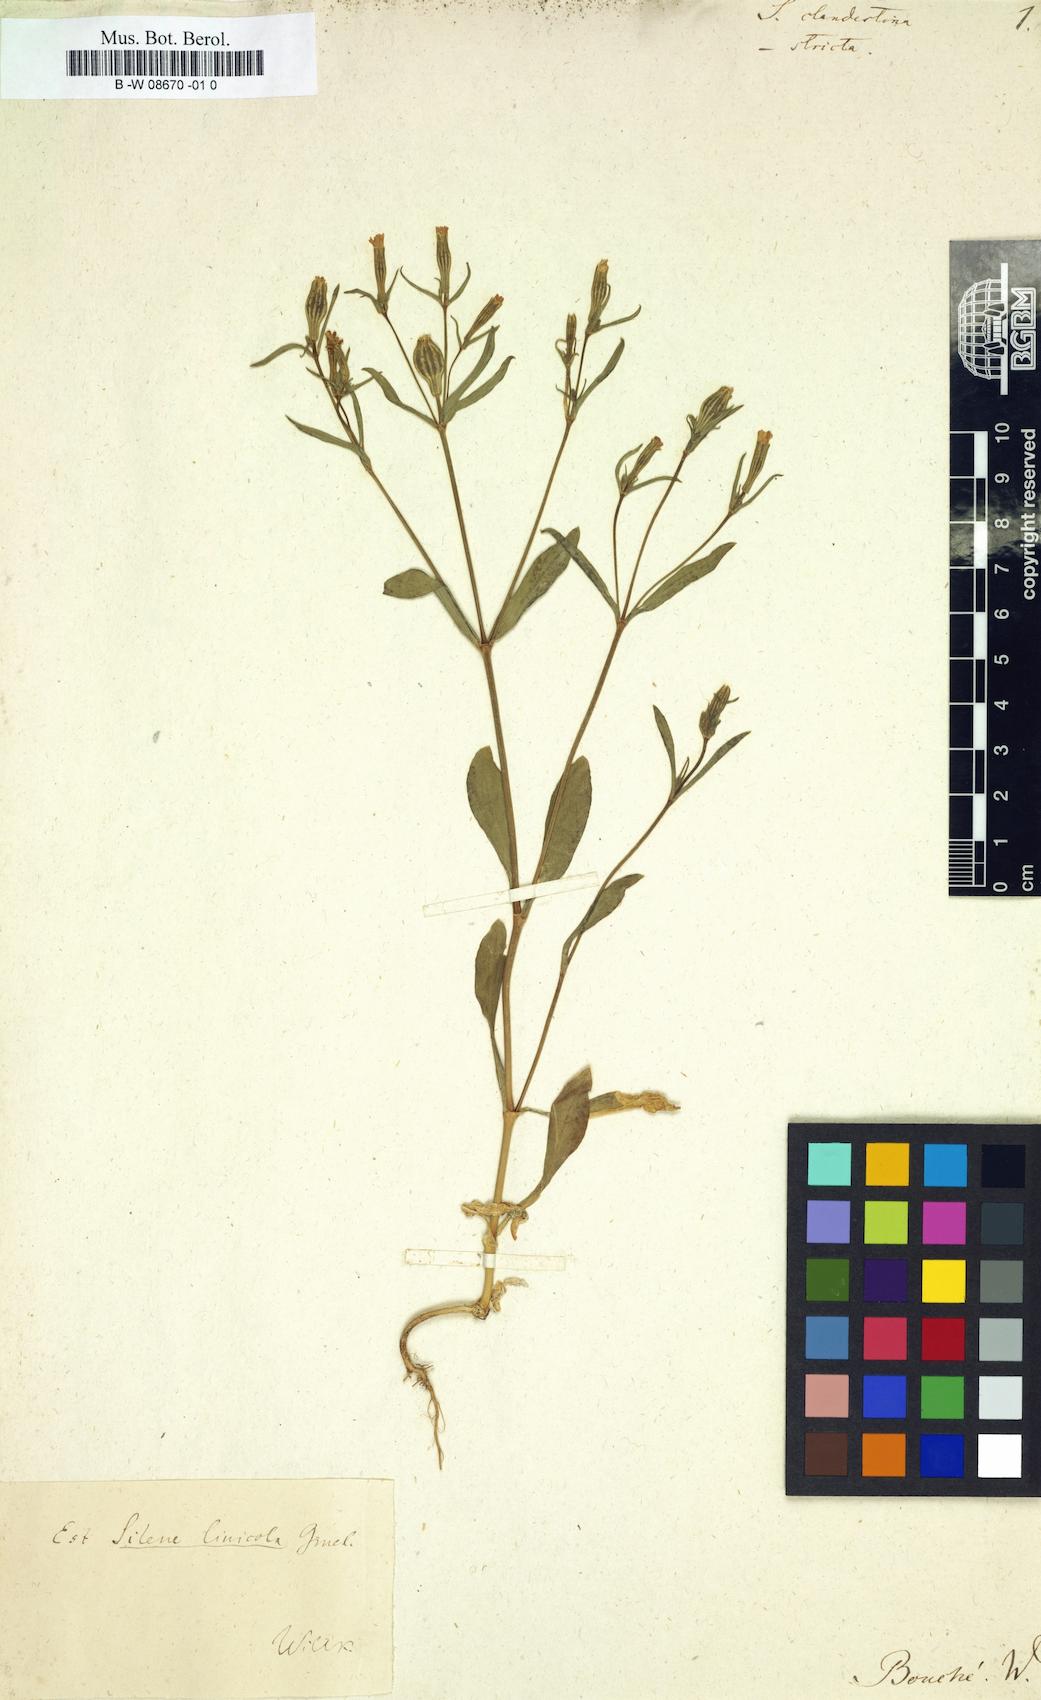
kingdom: Plantae
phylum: Tracheophyta
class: Magnoliopsida
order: Caryophyllales
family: Caryophyllaceae
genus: Silene
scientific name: Silene aethiopica
